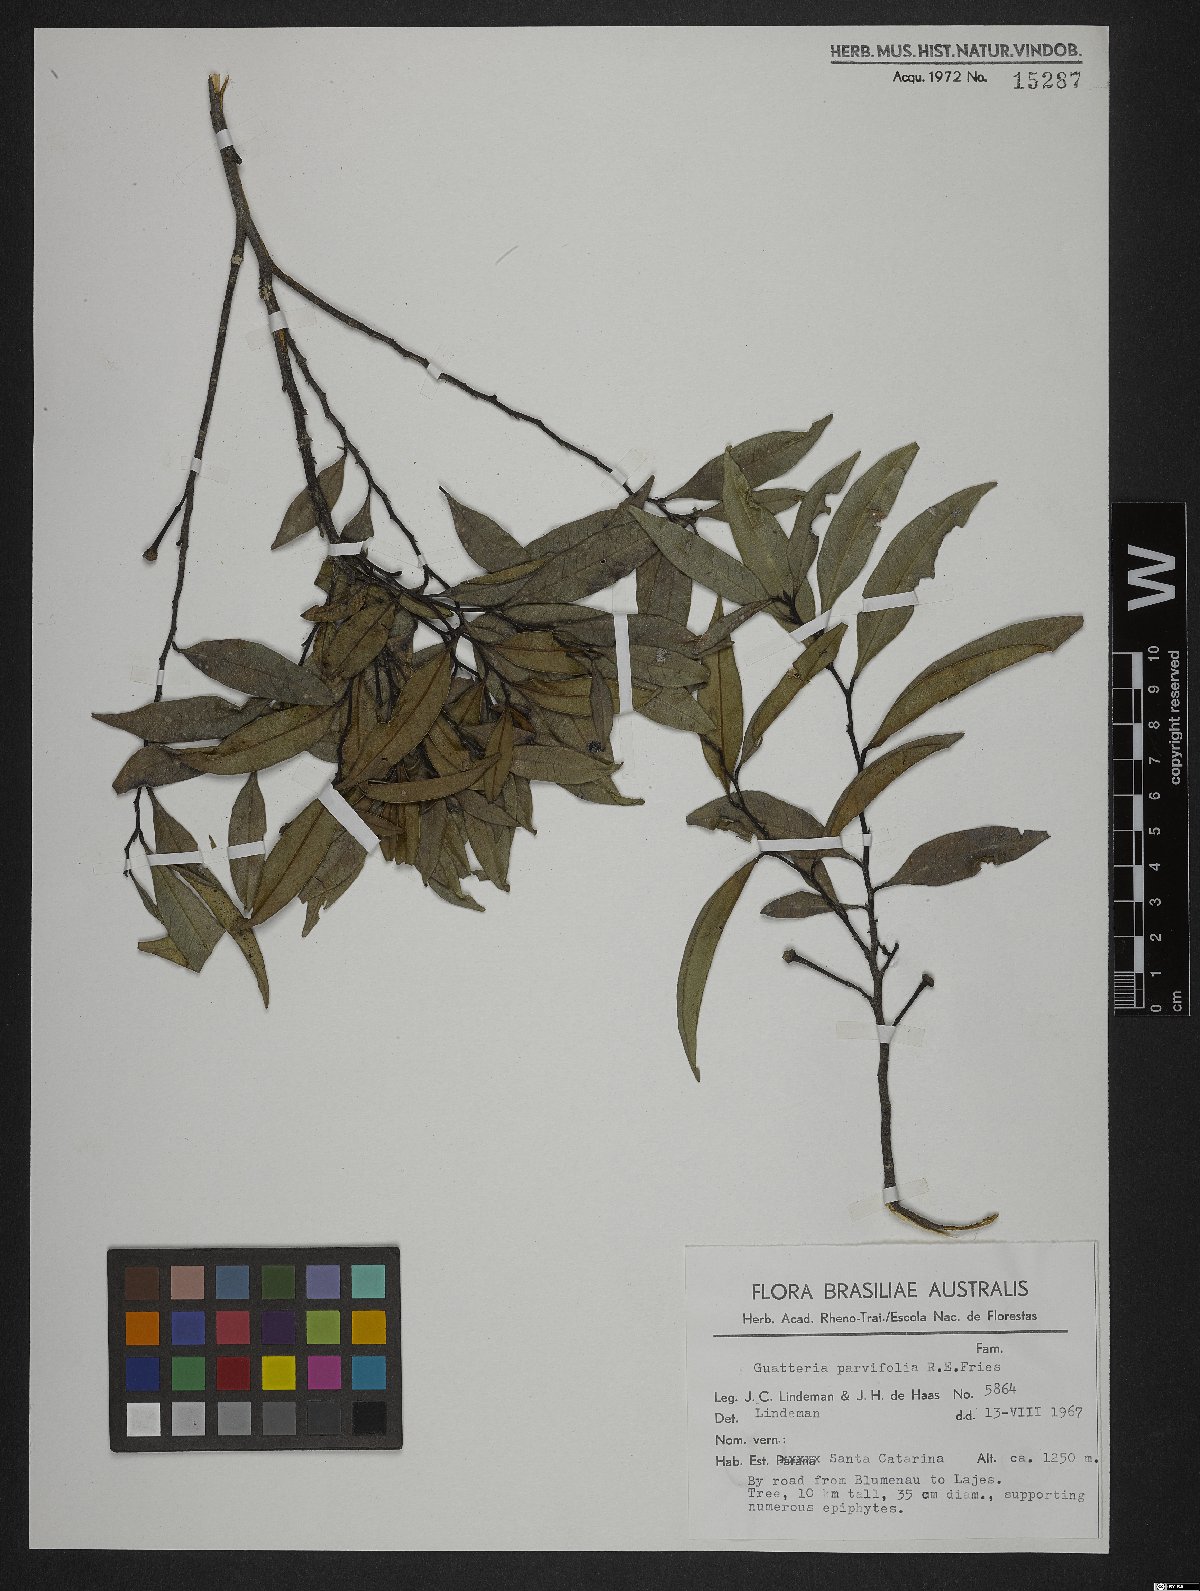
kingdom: Plantae
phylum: Tracheophyta
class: Magnoliopsida
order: Magnoliales
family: Annonaceae
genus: Guatteria
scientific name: Guatteria australis
